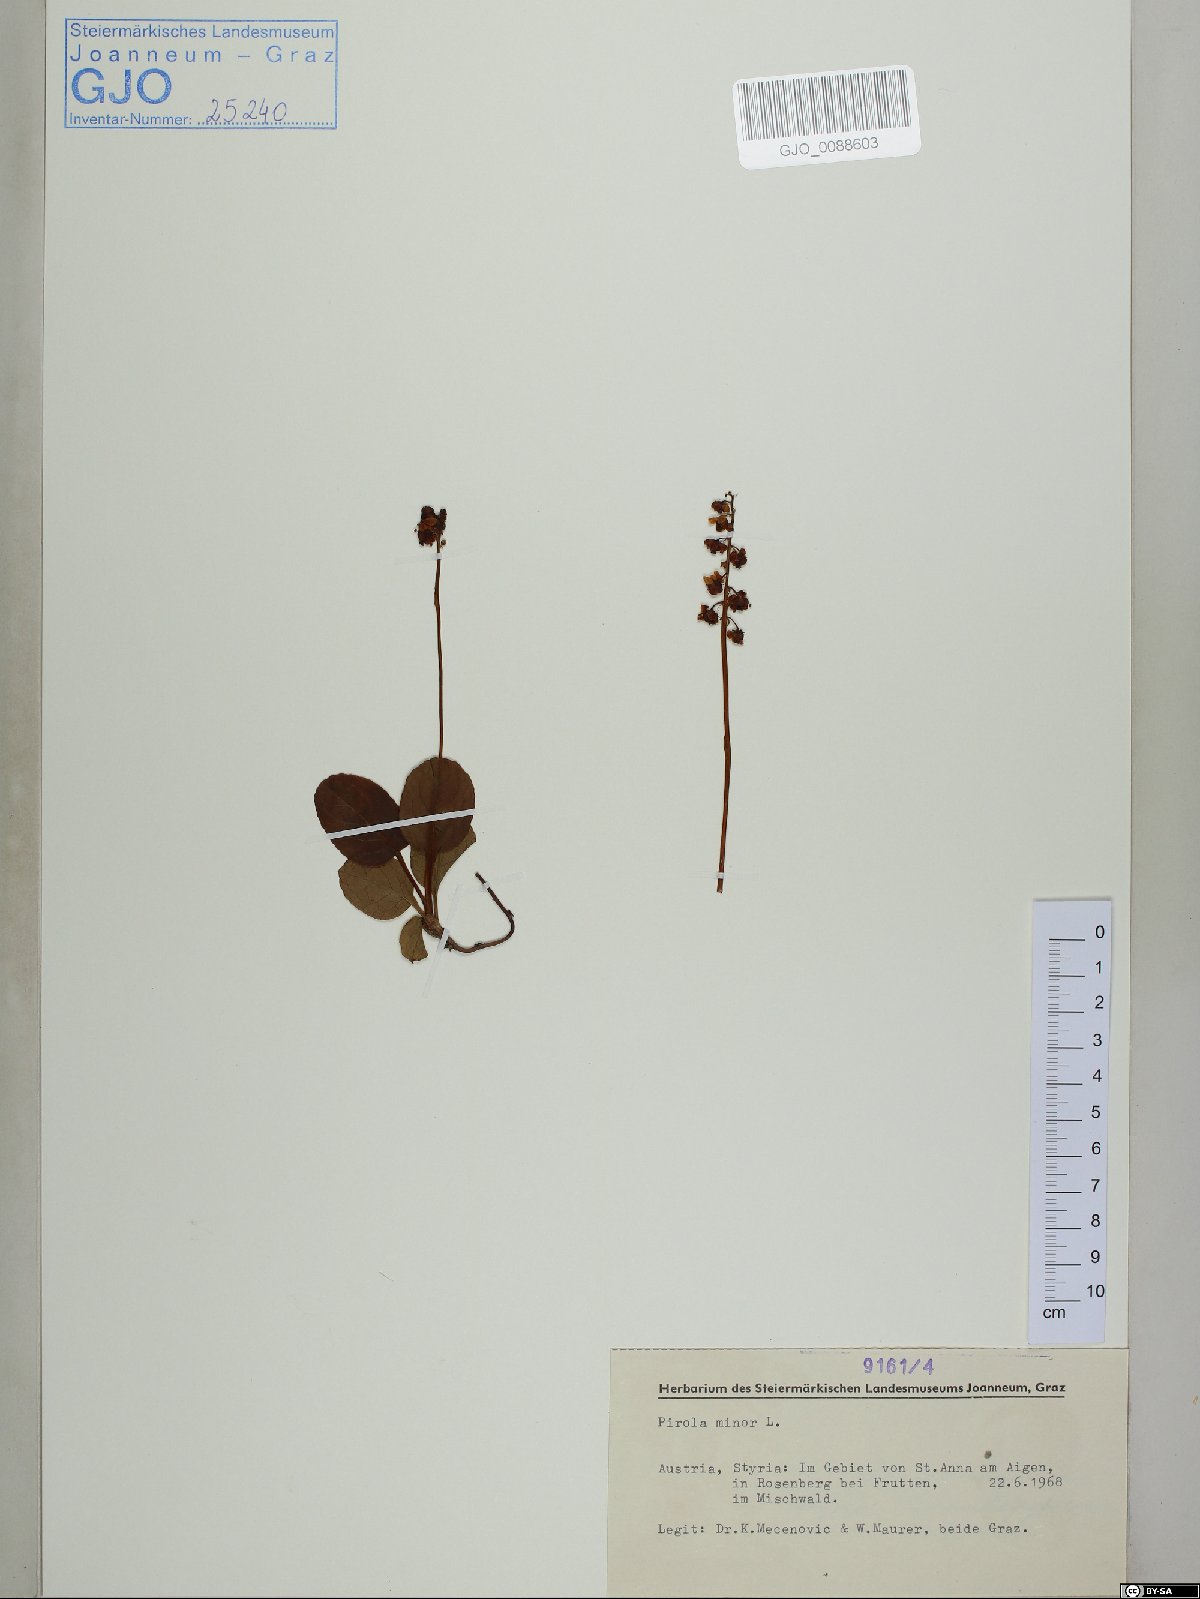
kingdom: Plantae
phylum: Tracheophyta
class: Magnoliopsida
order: Ericales
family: Ericaceae
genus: Pyrola
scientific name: Pyrola minor
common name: Common wintergreen
